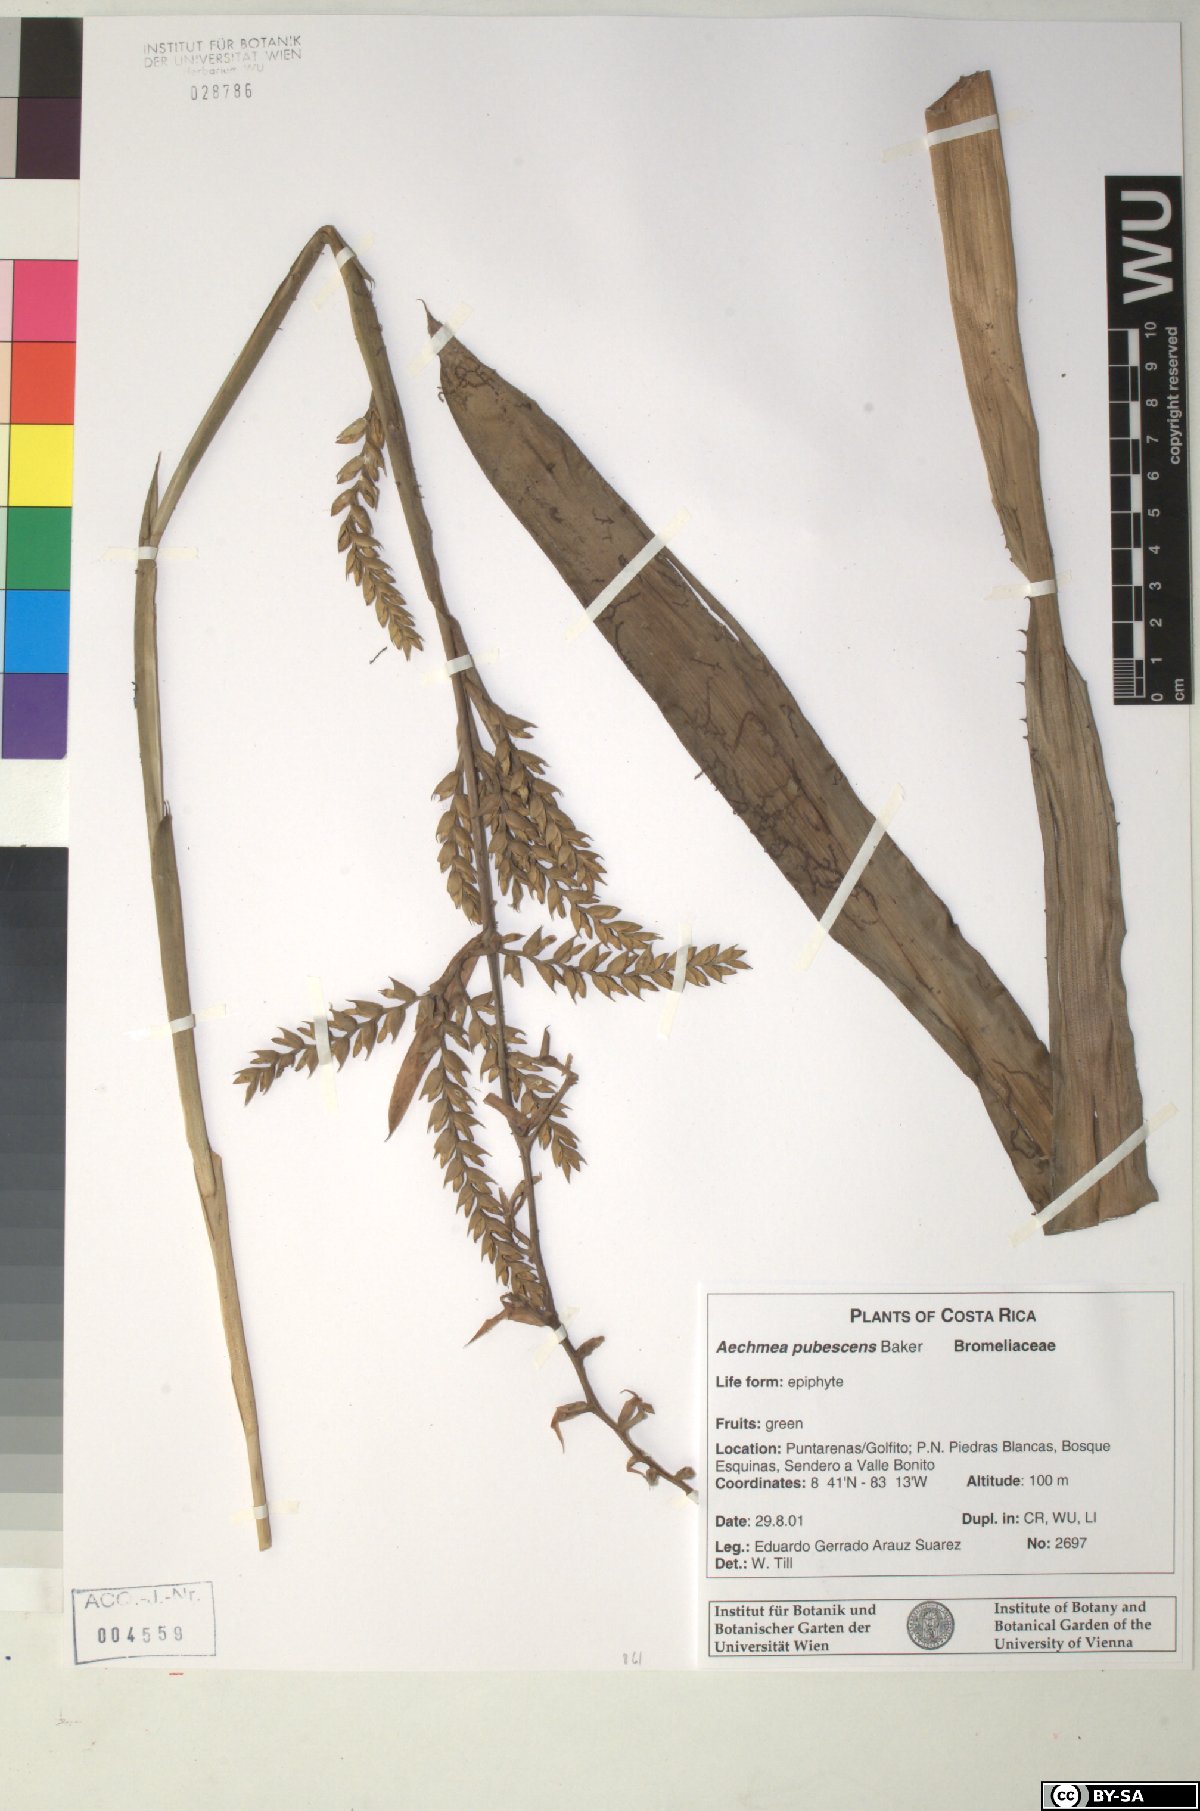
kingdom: Plantae
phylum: Tracheophyta
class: Liliopsida
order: Poales
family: Bromeliaceae
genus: Aechmea
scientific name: Aechmea pubescens
